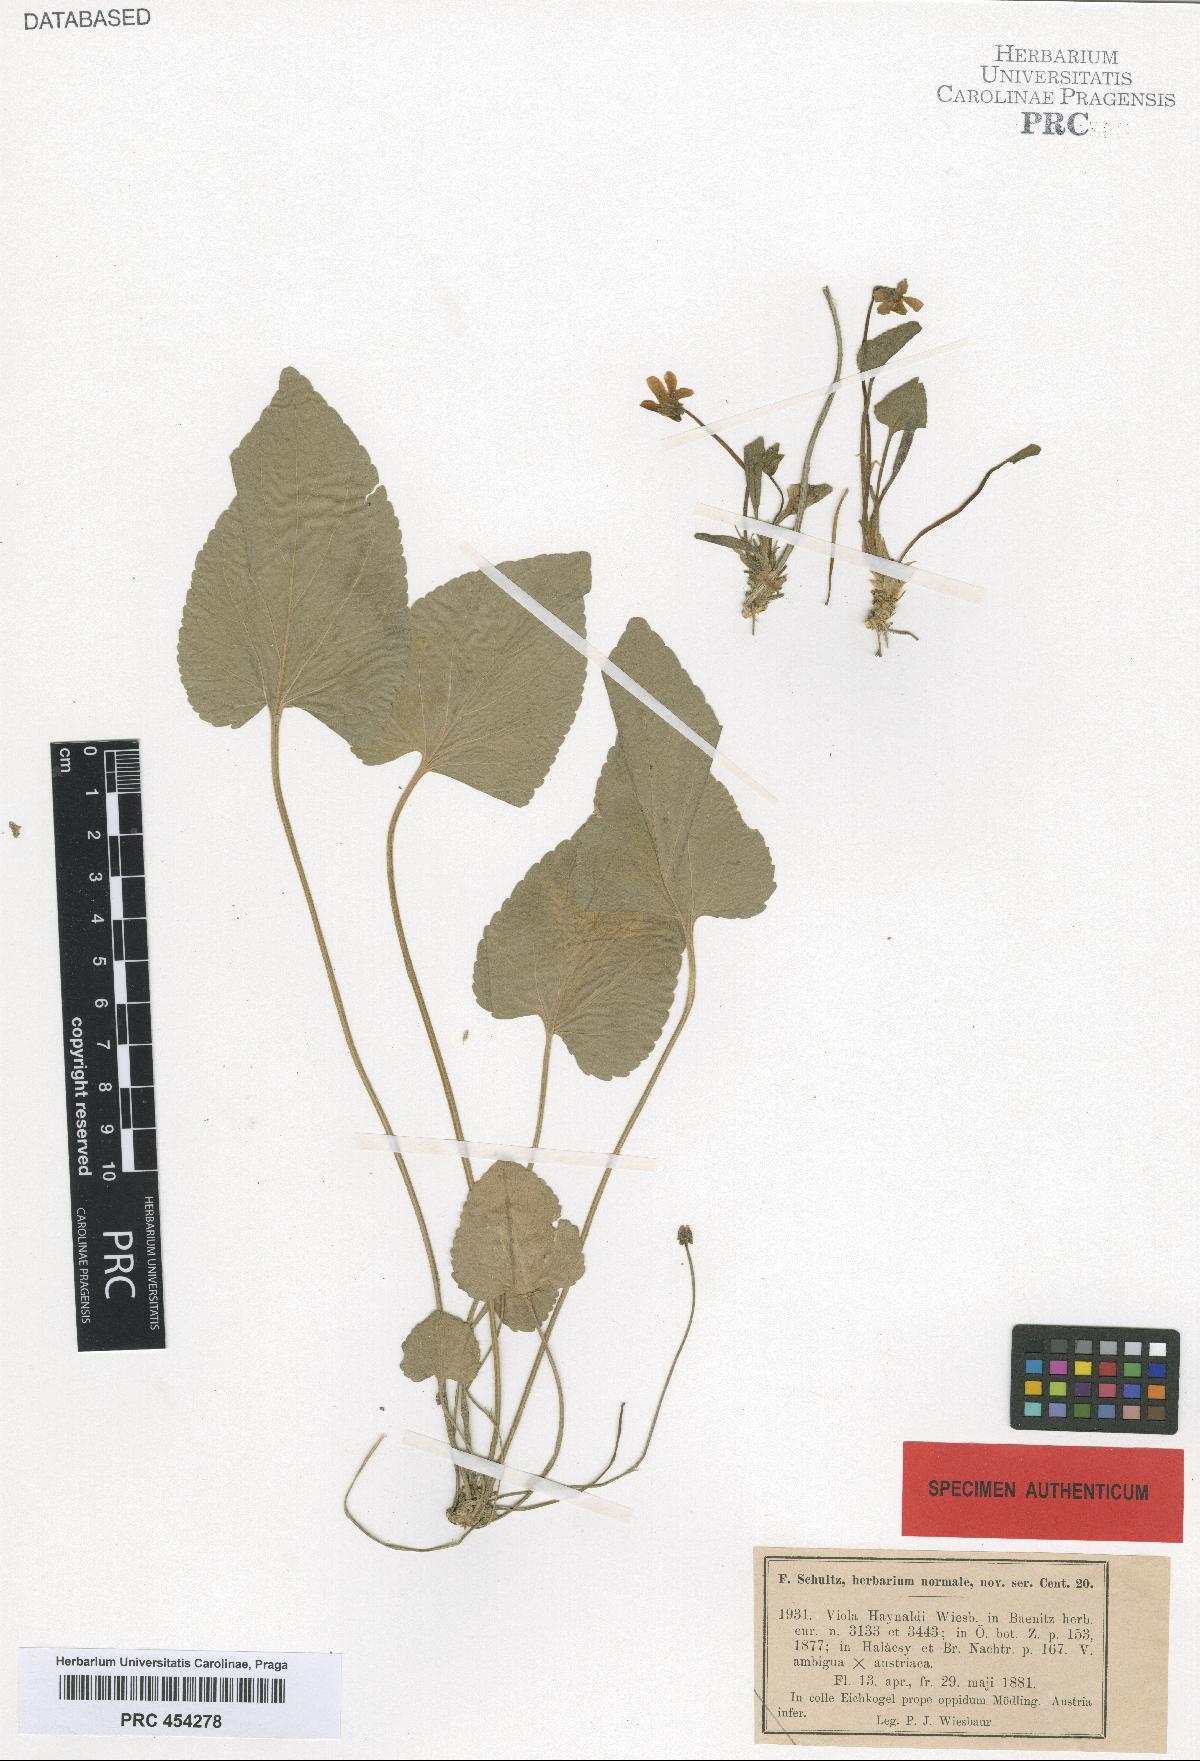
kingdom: Plantae
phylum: Tracheophyta
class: Magnoliopsida
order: Malpighiales
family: Violaceae
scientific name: Violaceae
